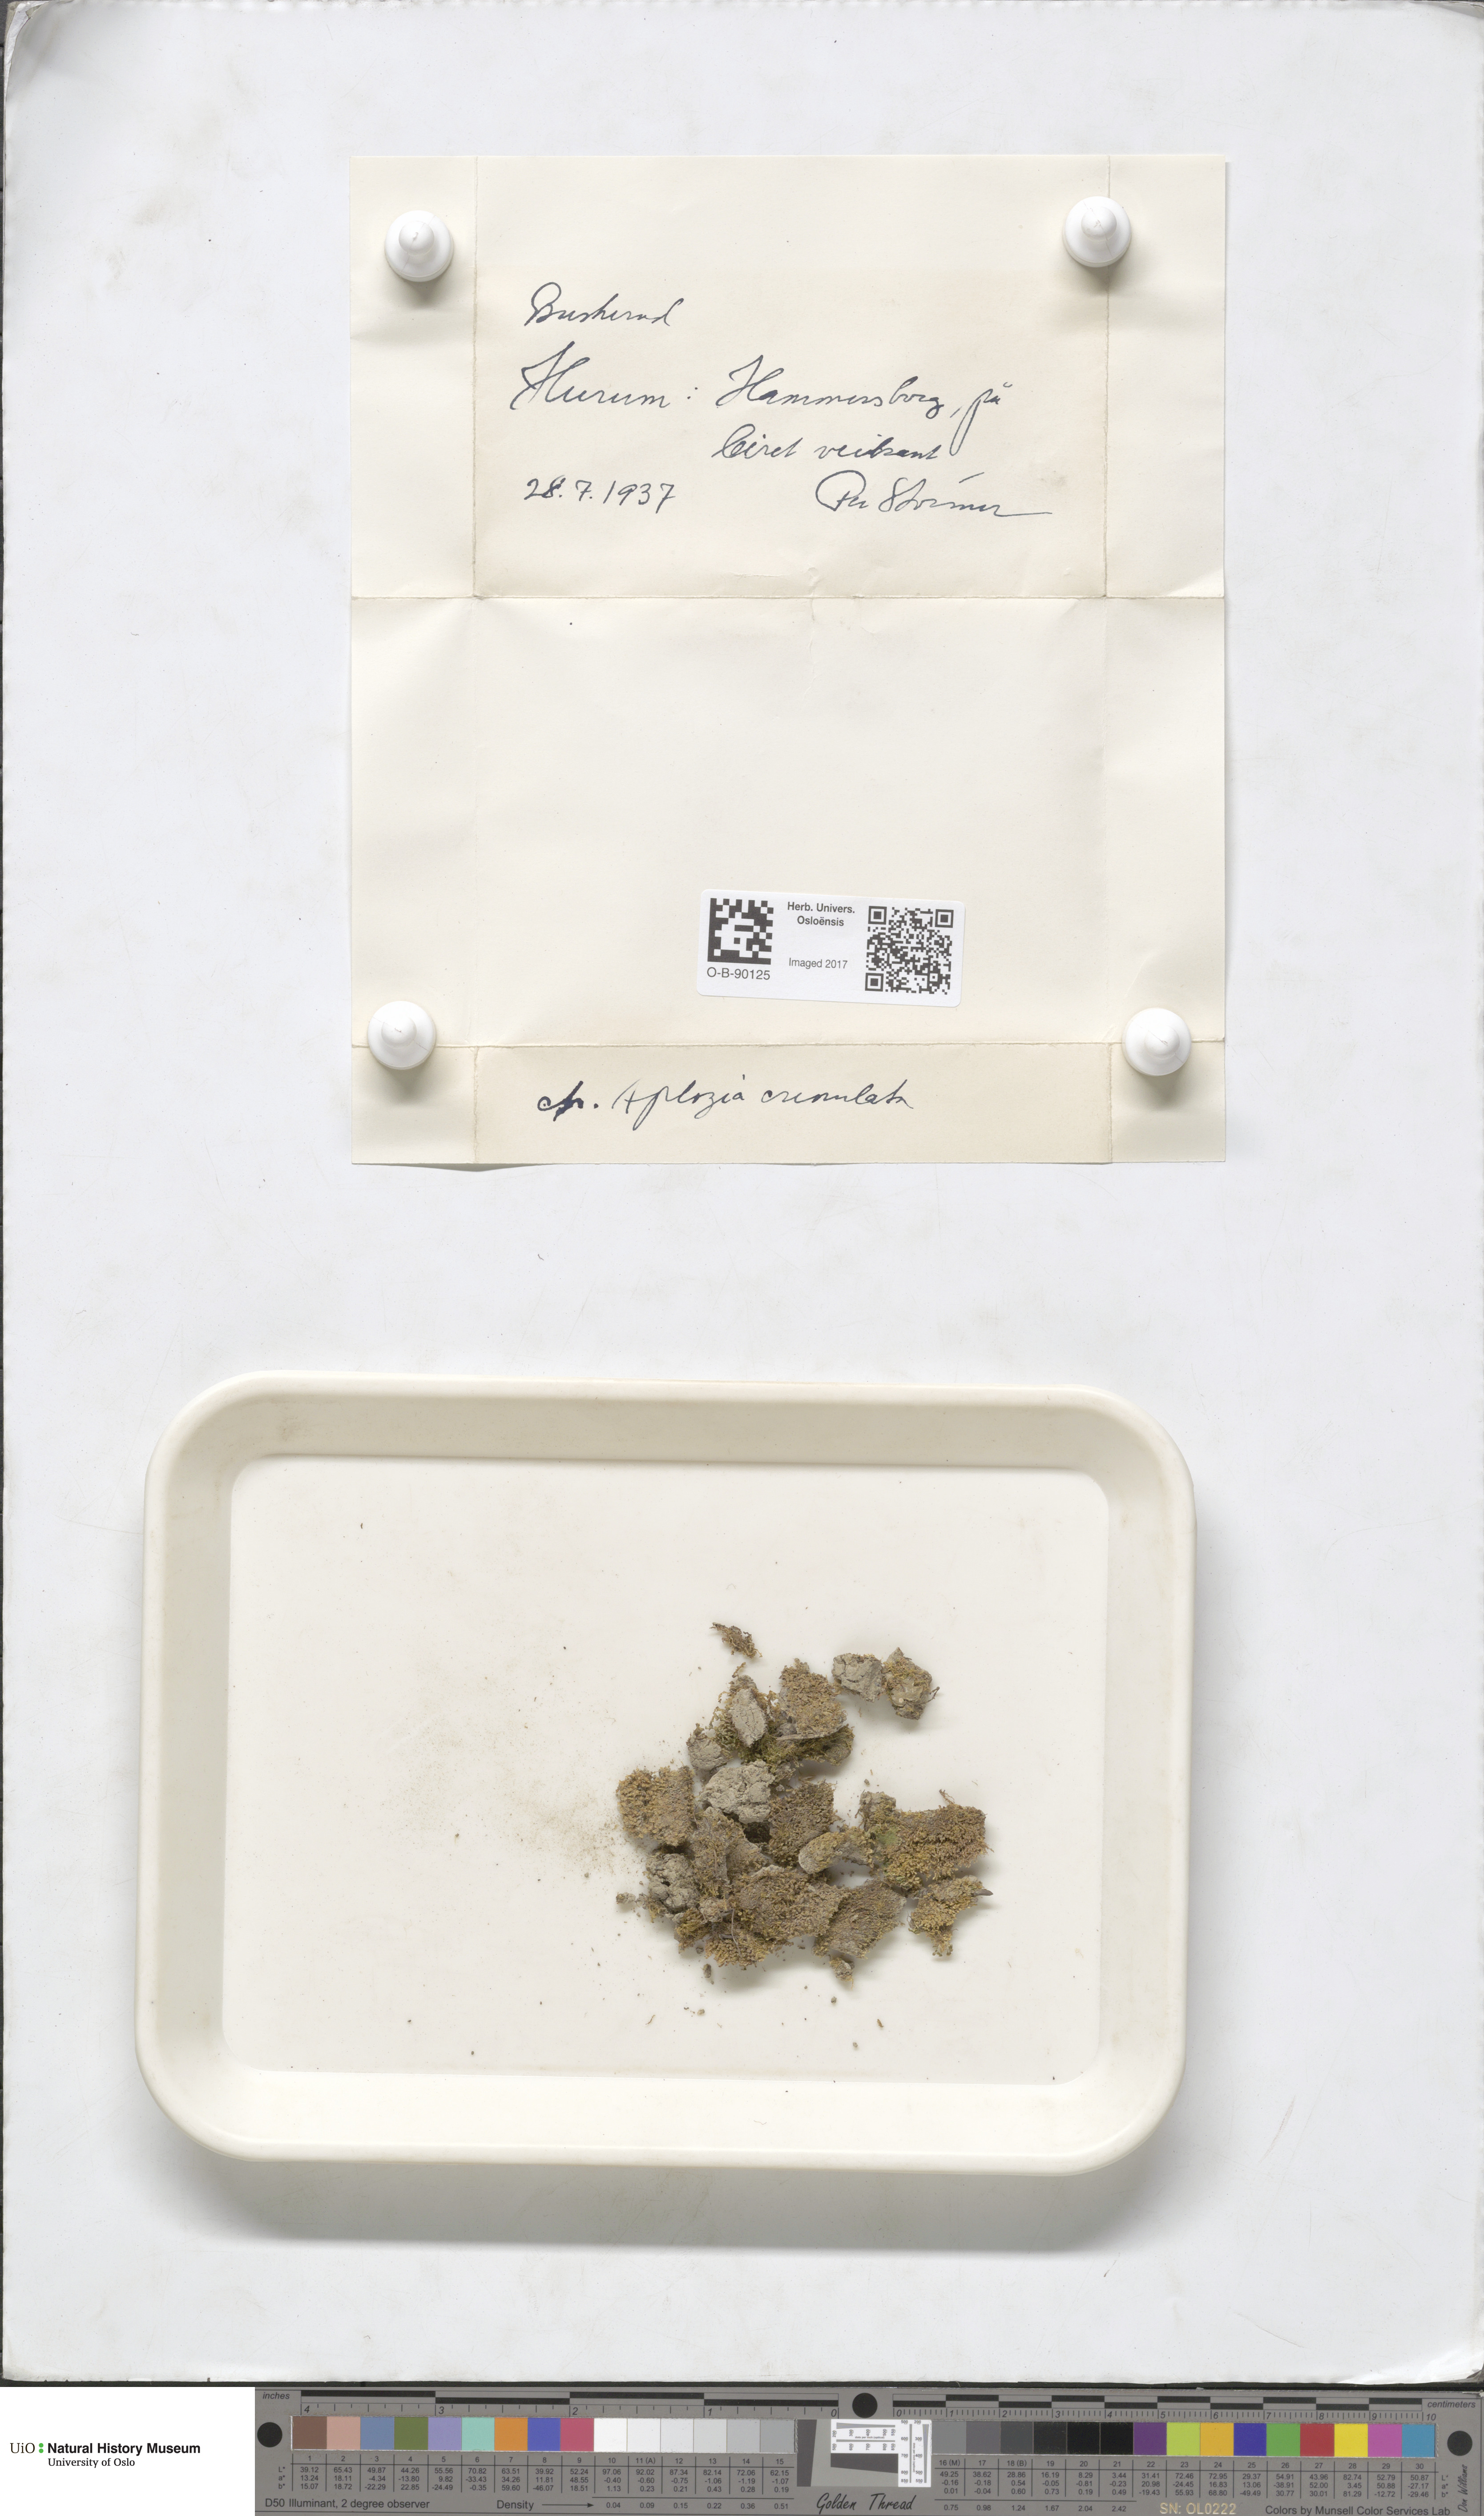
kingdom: Plantae
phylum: Marchantiophyta
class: Jungermanniopsida
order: Jungermanniales
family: Solenostomataceae
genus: Solenostoma
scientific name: Solenostoma gracillimum
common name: Crenulated flapwort
